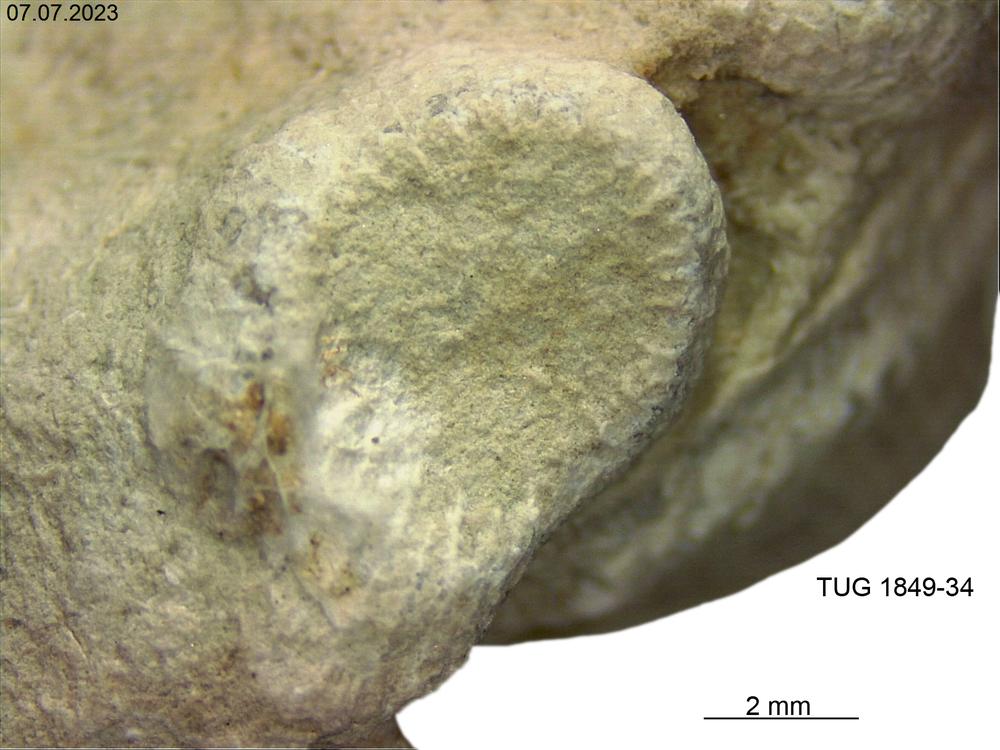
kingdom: Animalia
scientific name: Animalia
